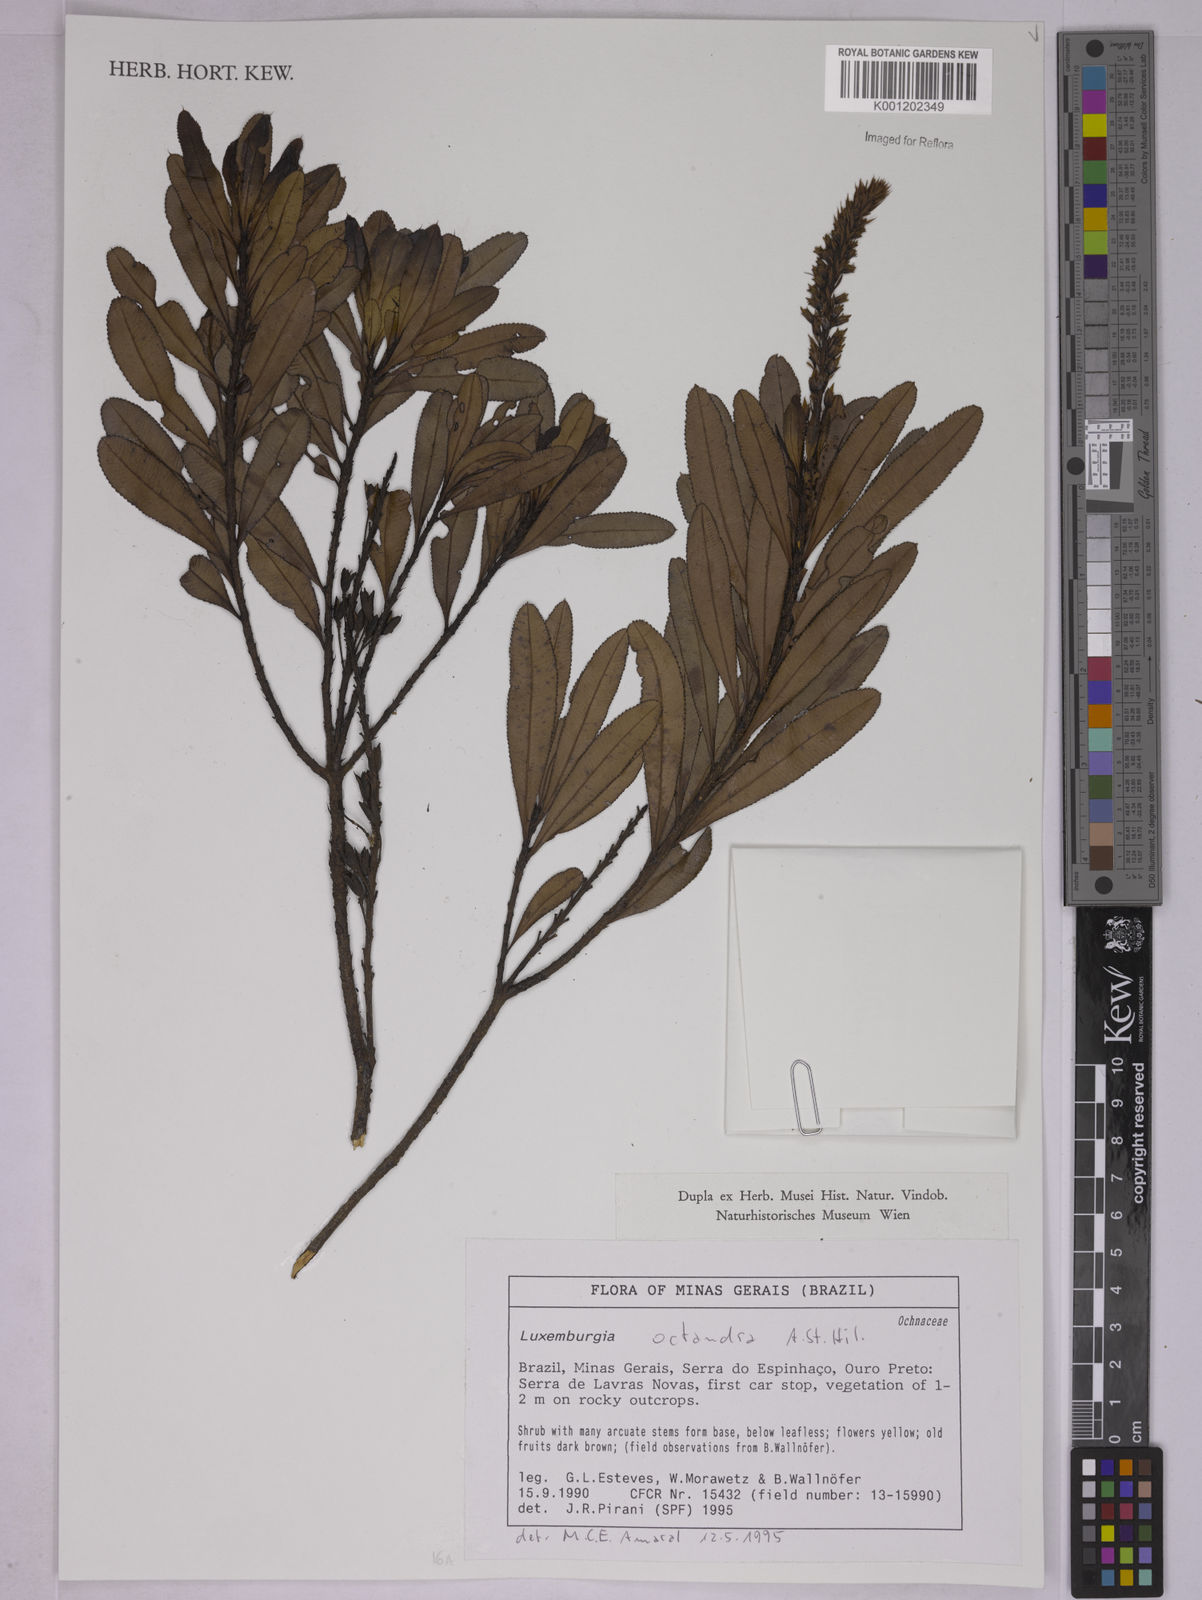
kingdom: Plantae
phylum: Tracheophyta
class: Magnoliopsida
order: Malpighiales
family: Ochnaceae
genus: Luxemburgia
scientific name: Luxemburgia octandra
